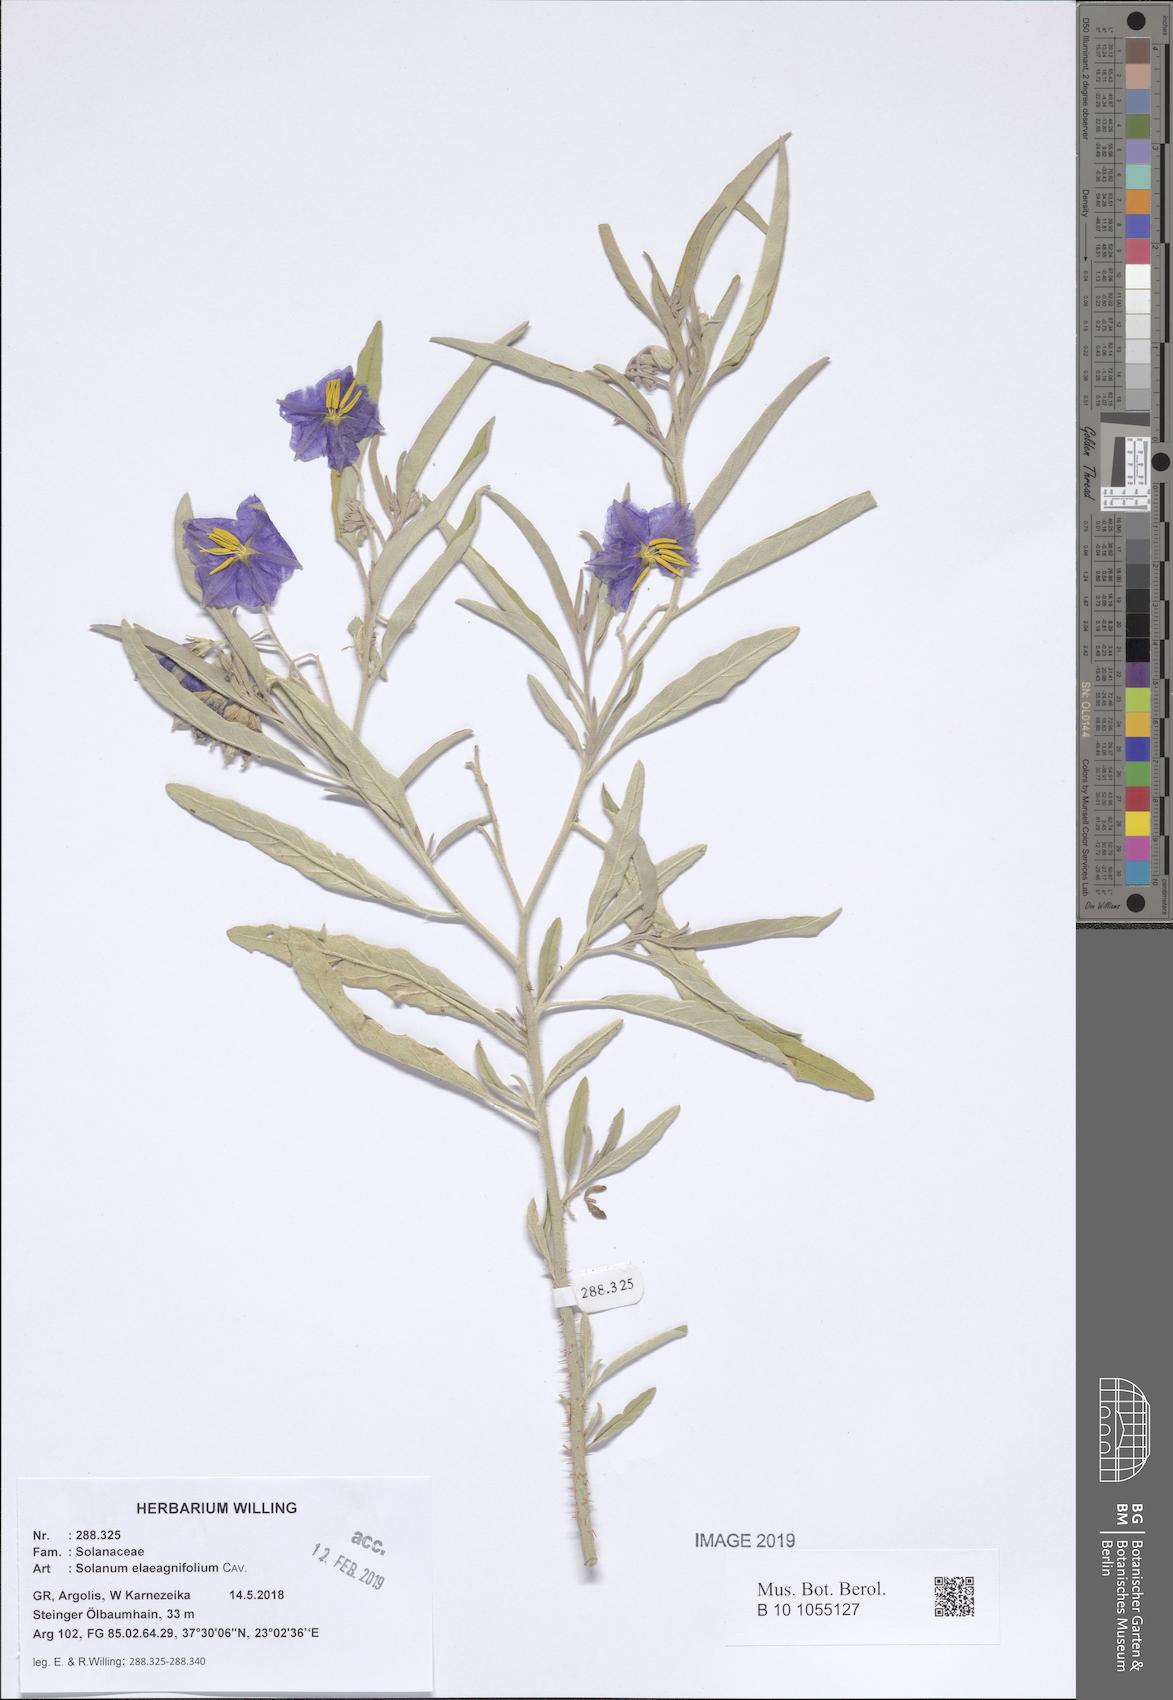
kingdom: Plantae
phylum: Tracheophyta
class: Magnoliopsida
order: Solanales
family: Solanaceae
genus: Solanum
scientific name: Solanum elaeagnifolium
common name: Silverleaf nightshade
